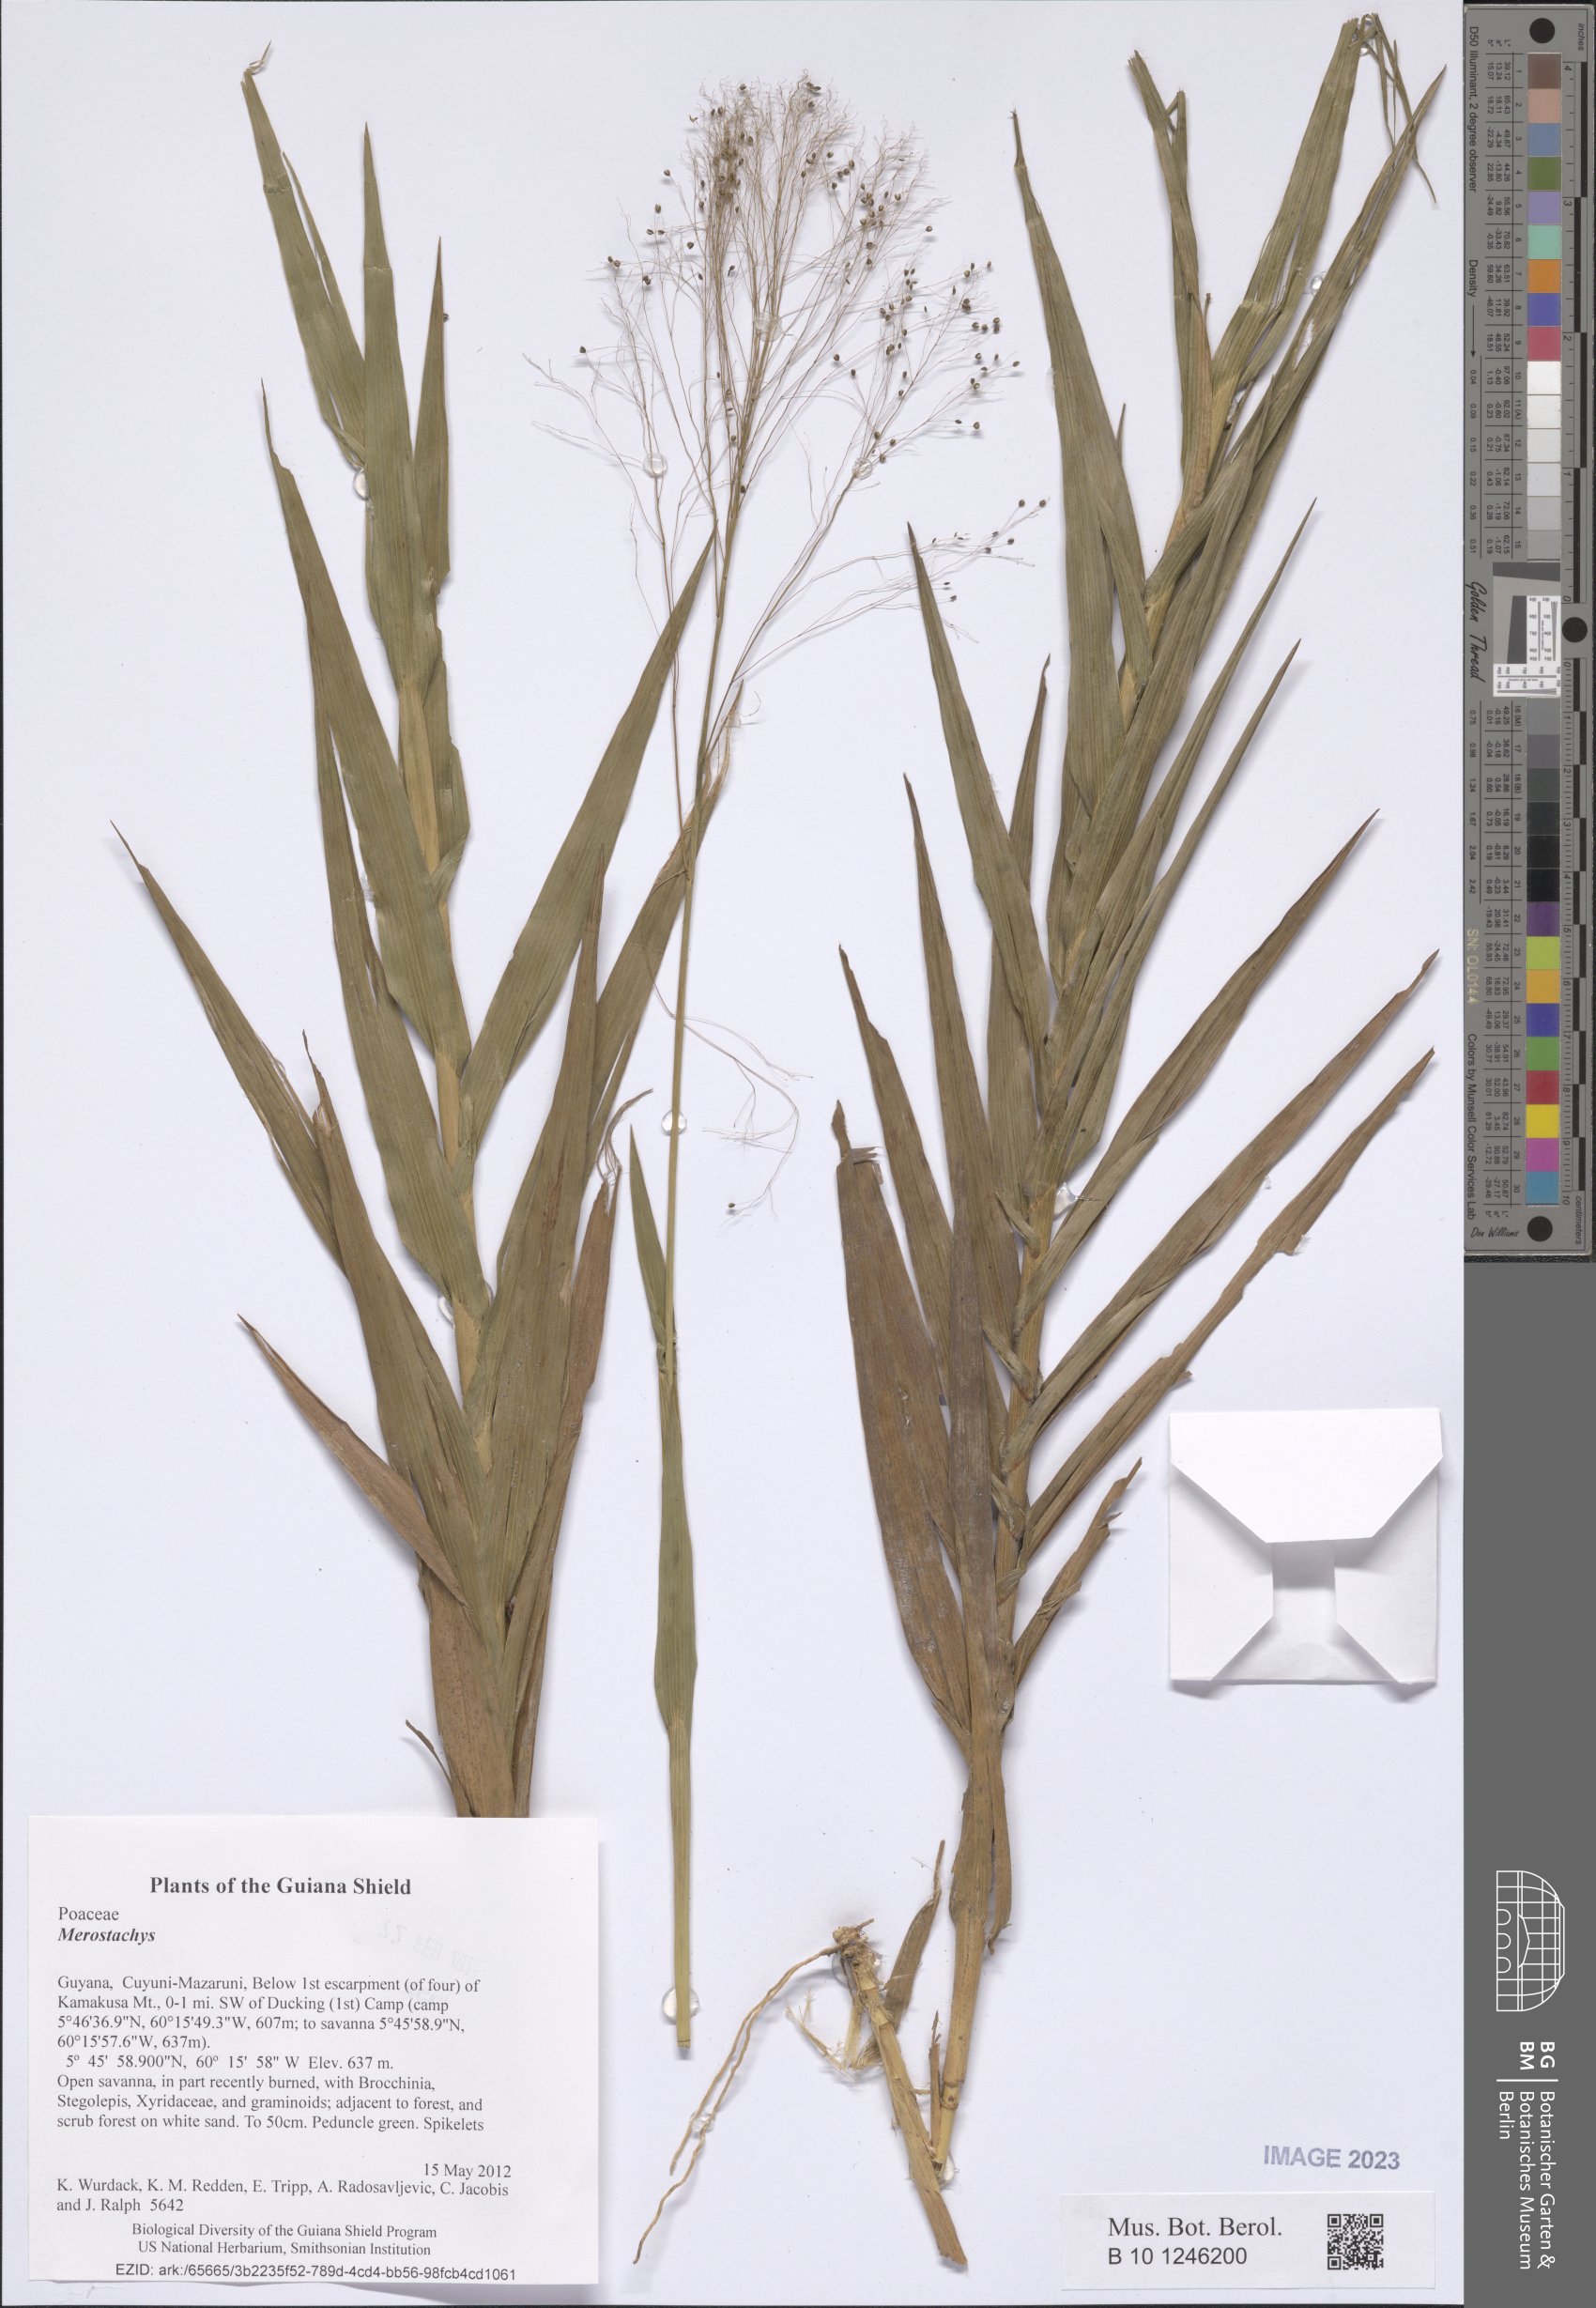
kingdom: Plantae
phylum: Tracheophyta
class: Liliopsida
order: Poales
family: Poaceae
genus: Merostachys
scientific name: Merostachys
